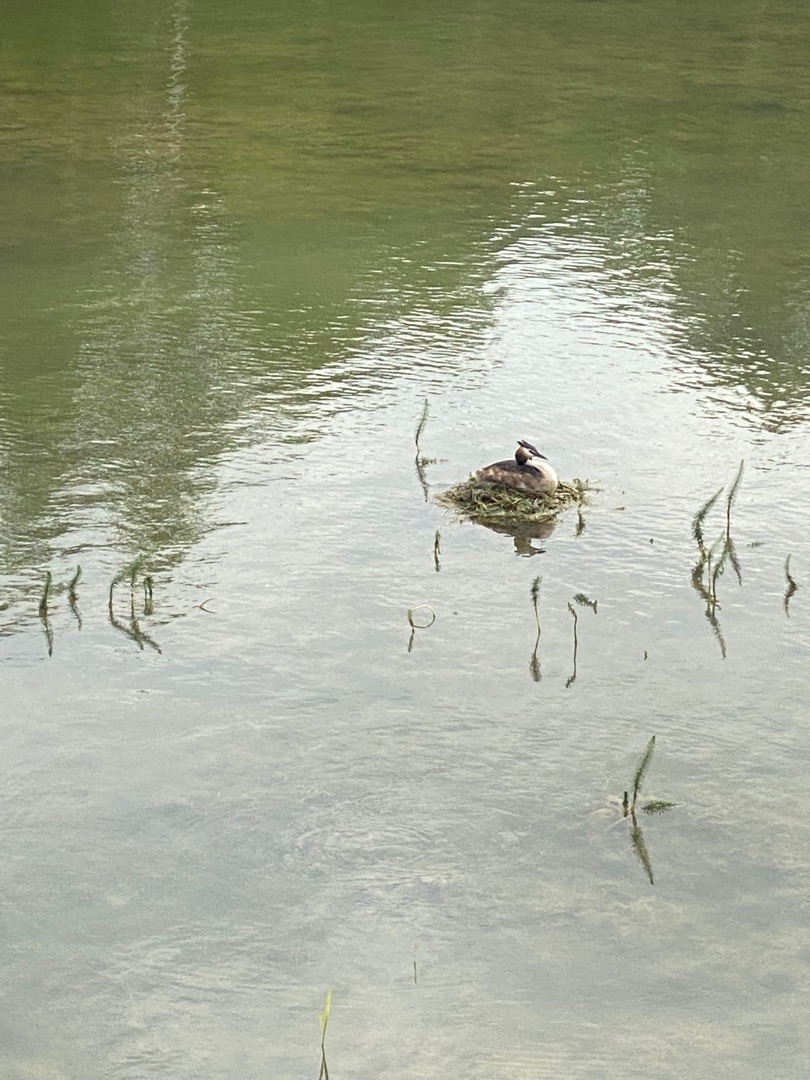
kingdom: Animalia
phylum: Chordata
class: Aves
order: Podicipediformes
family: Podicipedidae
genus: Podiceps
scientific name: Podiceps cristatus
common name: Toppet lappedykker
